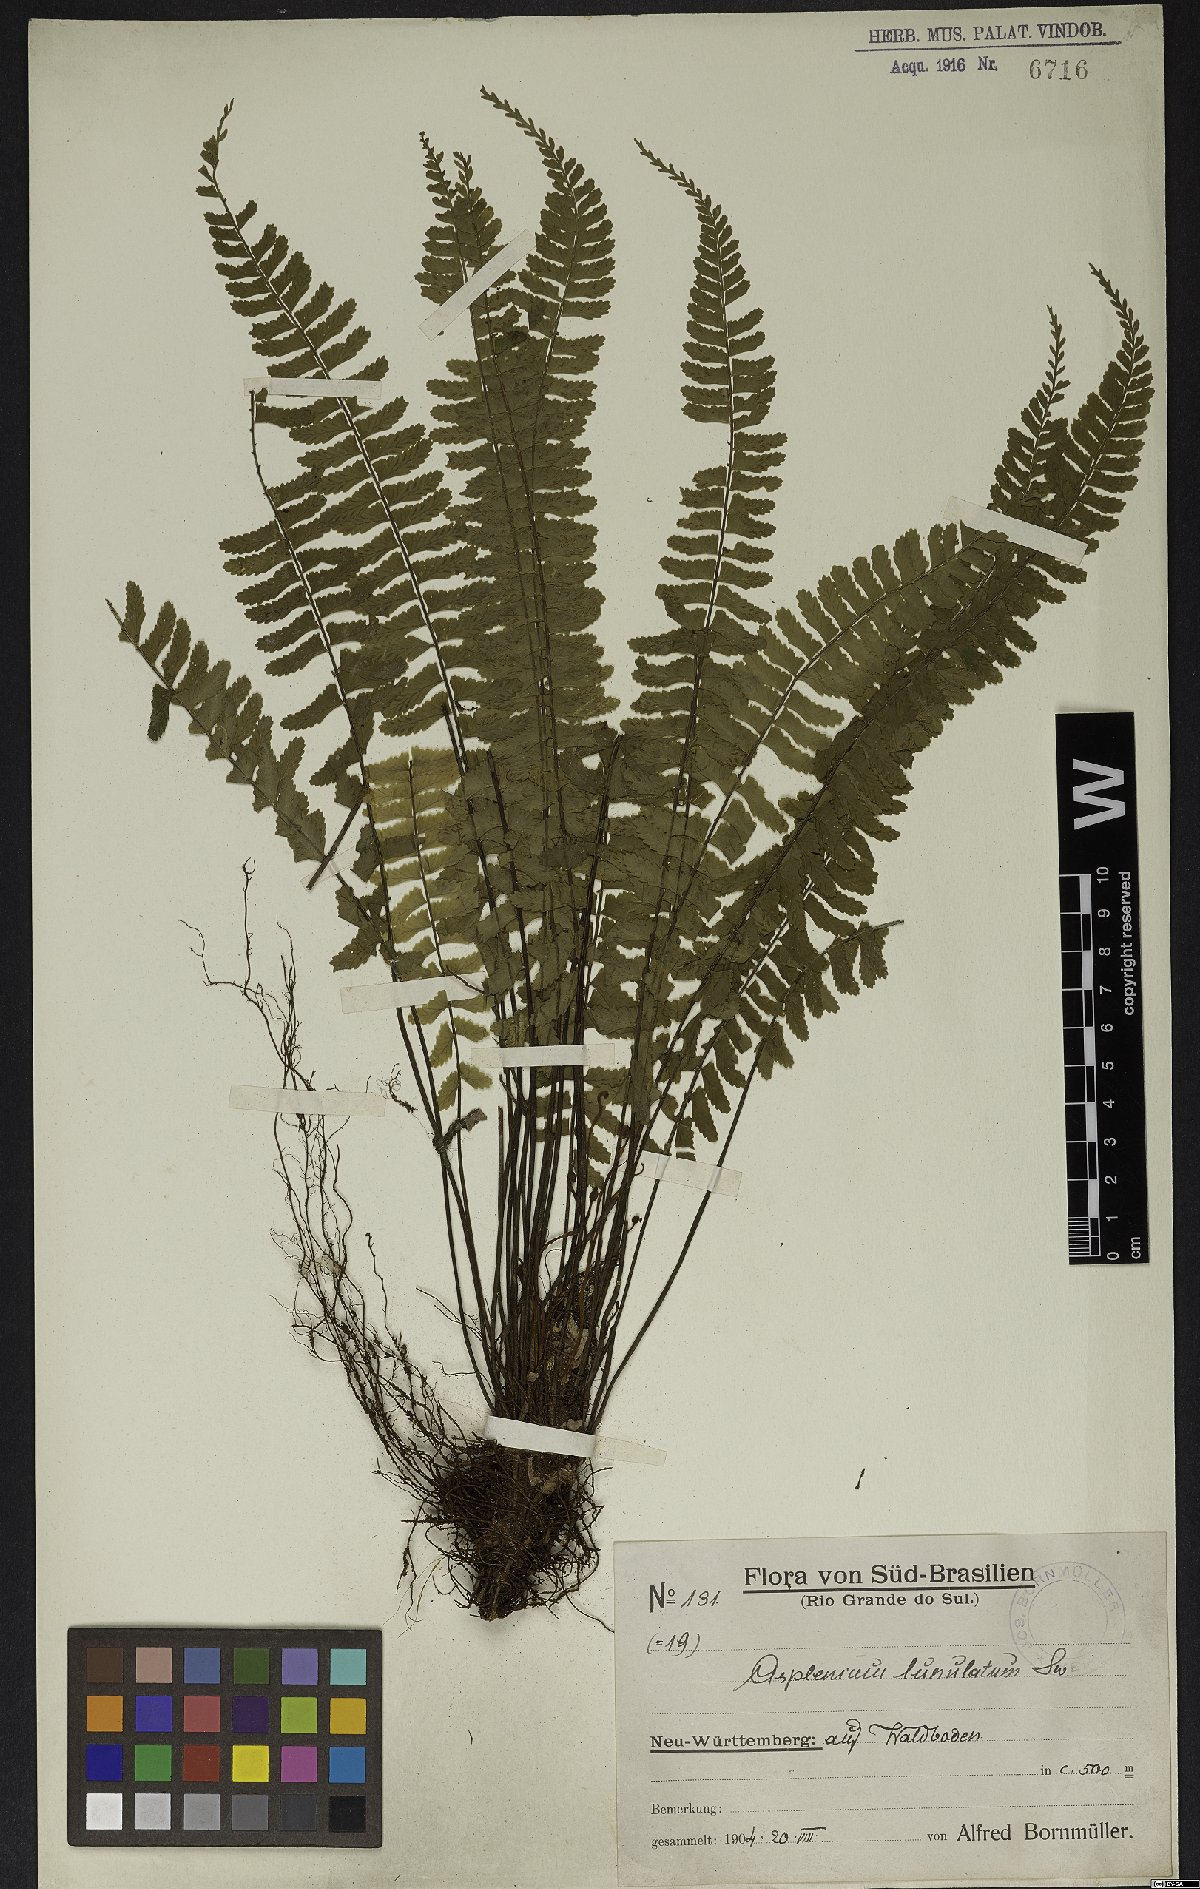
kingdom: Plantae
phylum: Tracheophyta
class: Polypodiopsida
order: Polypodiales
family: Aspleniaceae
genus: Asplenium
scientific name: Asplenium lunulatum
